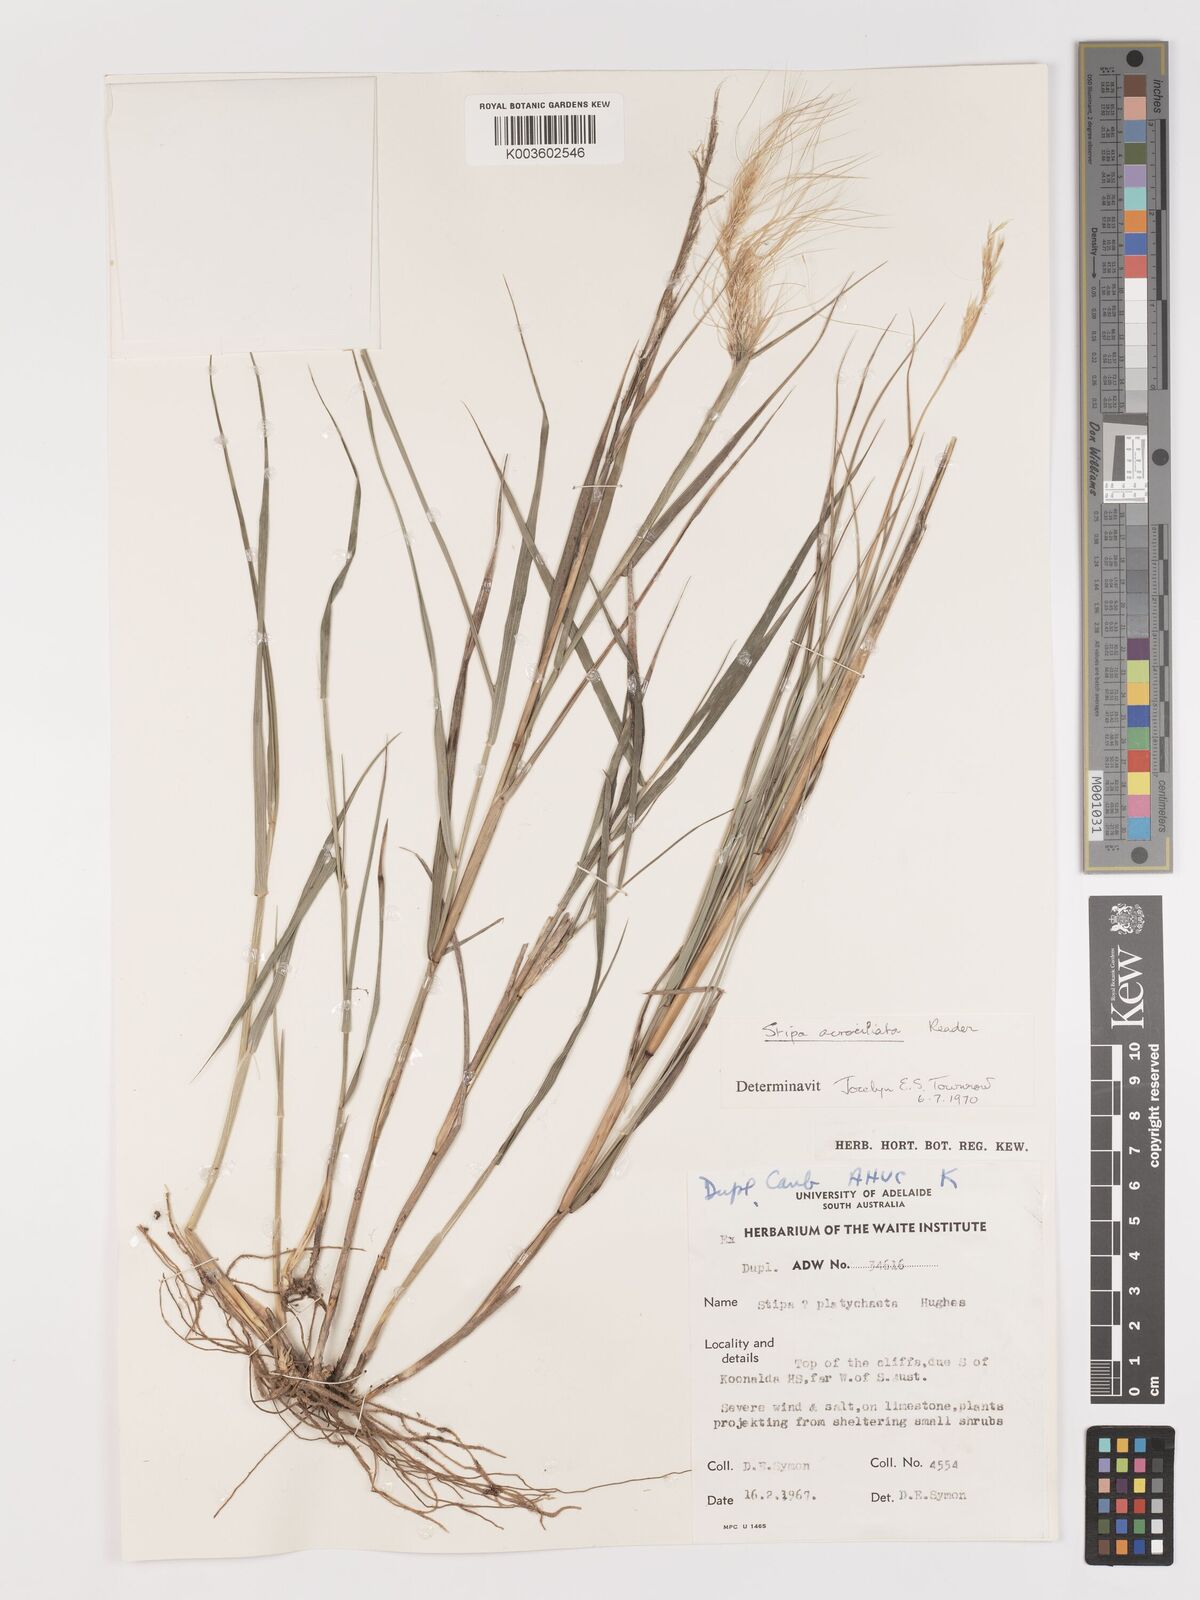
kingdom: Plantae
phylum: Tracheophyta
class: Liliopsida
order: Poales
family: Poaceae
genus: Austrostipa
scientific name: Austrostipa acrociliata
